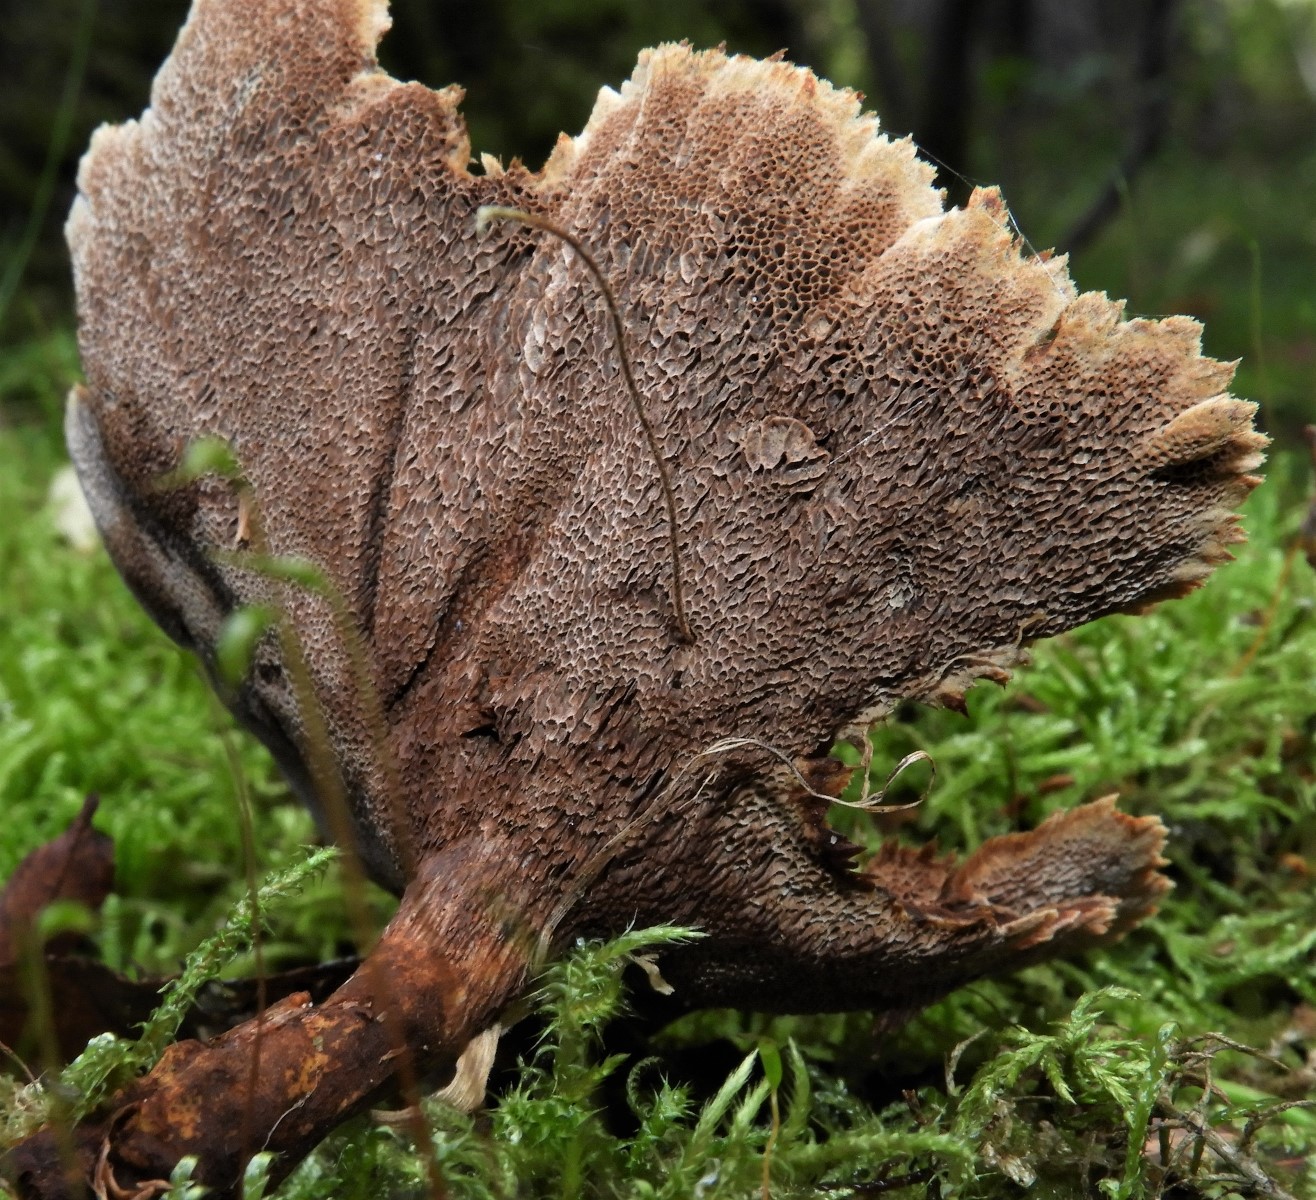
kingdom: Fungi
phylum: Basidiomycota
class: Agaricomycetes
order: Hymenochaetales
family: Hymenochaetaceae
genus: Coltricia
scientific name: Coltricia perennis
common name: almindelig sandporesvamp
